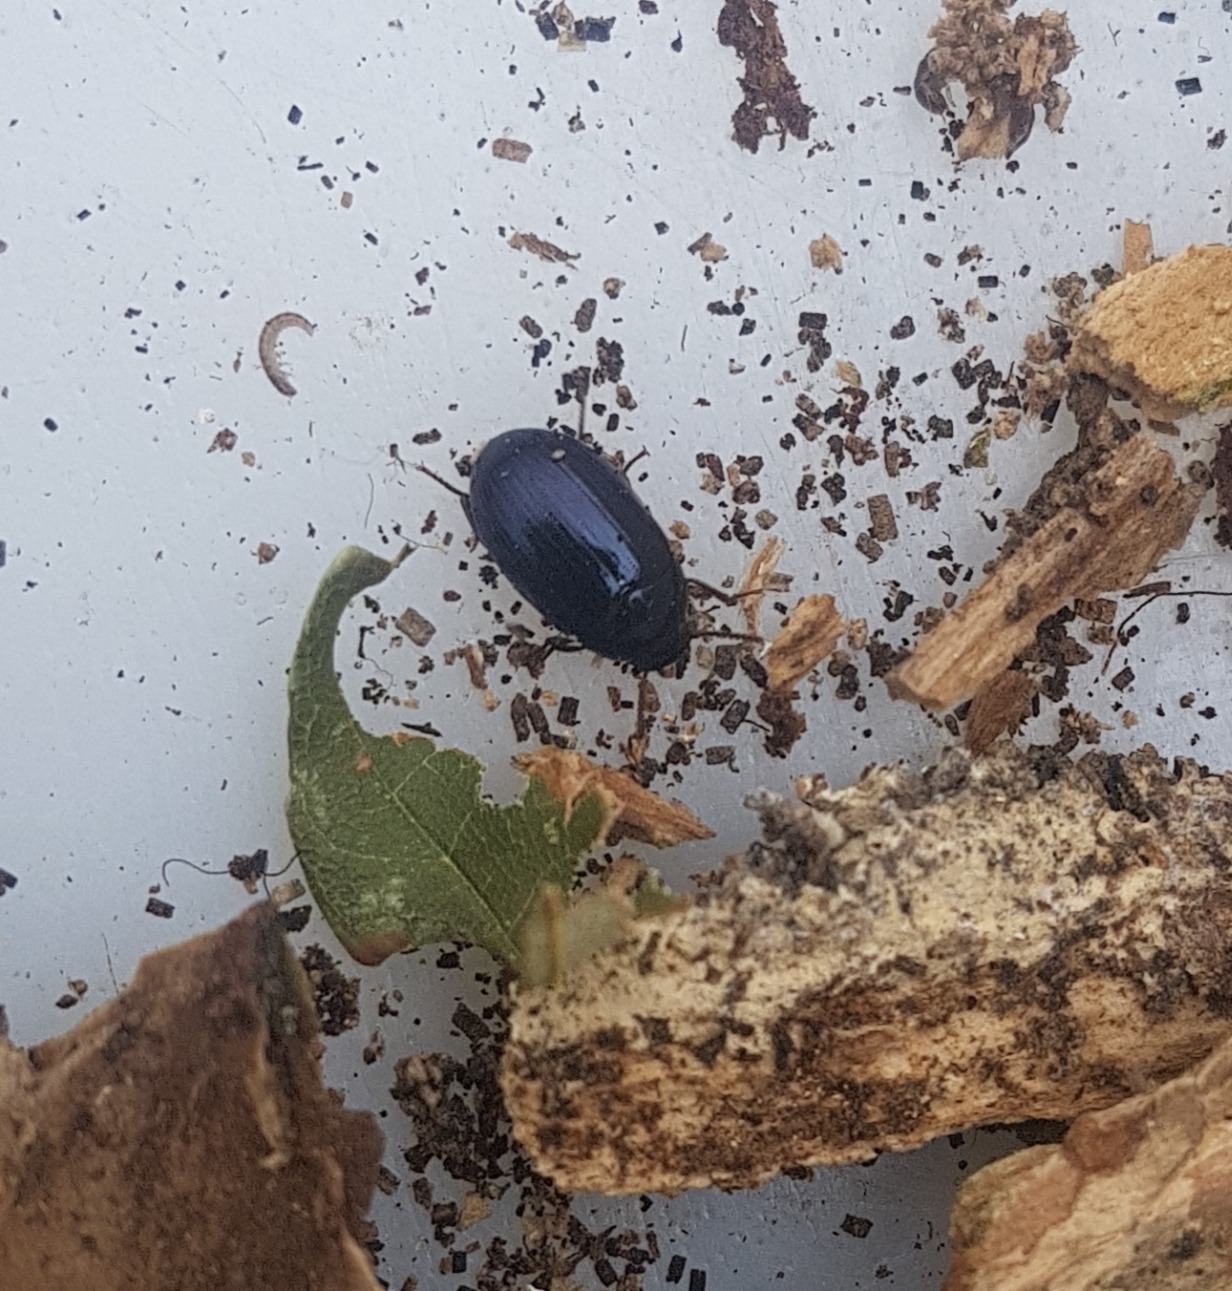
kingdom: Animalia
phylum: Arthropoda
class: Insecta
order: Coleoptera
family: Tenebrionidae
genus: Platydema
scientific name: Platydema violaceum
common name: Violet skyggebille
